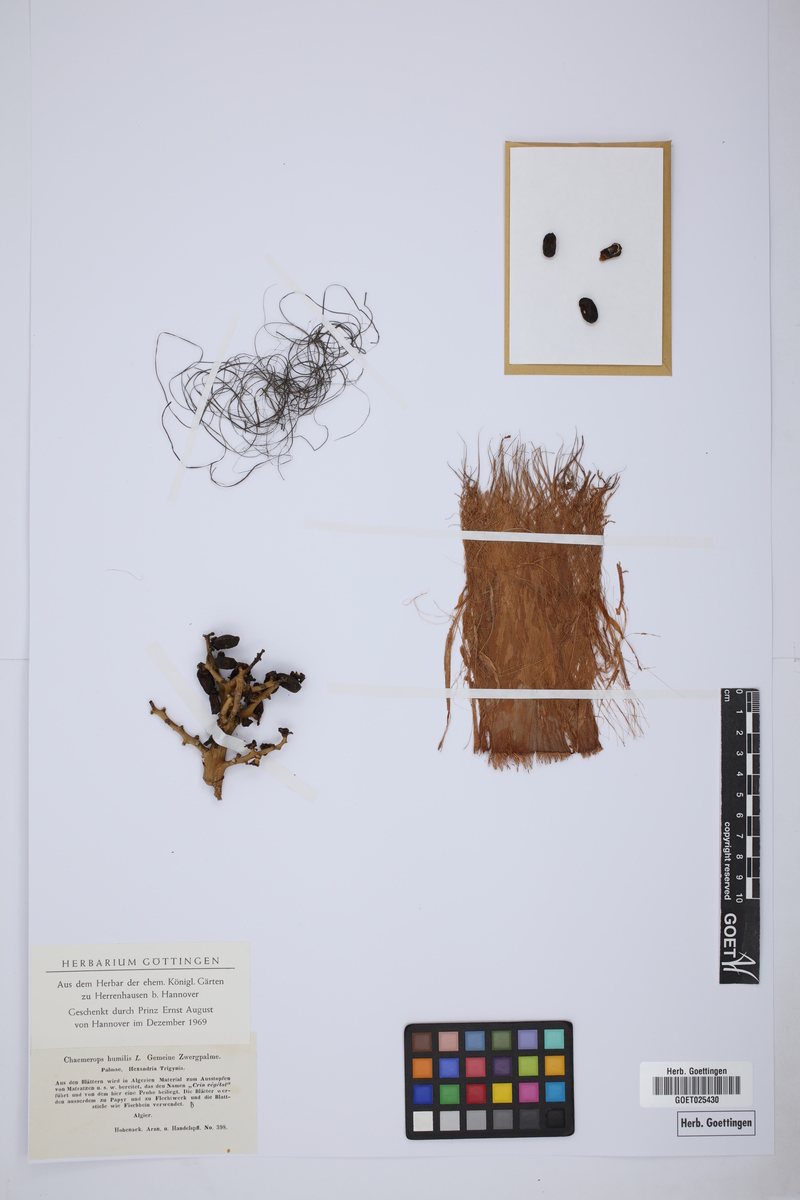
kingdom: Plantae
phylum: Tracheophyta
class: Liliopsida
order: Arecales
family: Arecaceae
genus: Chamaerops
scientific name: Chamaerops humilis
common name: Dwarf fan palm
